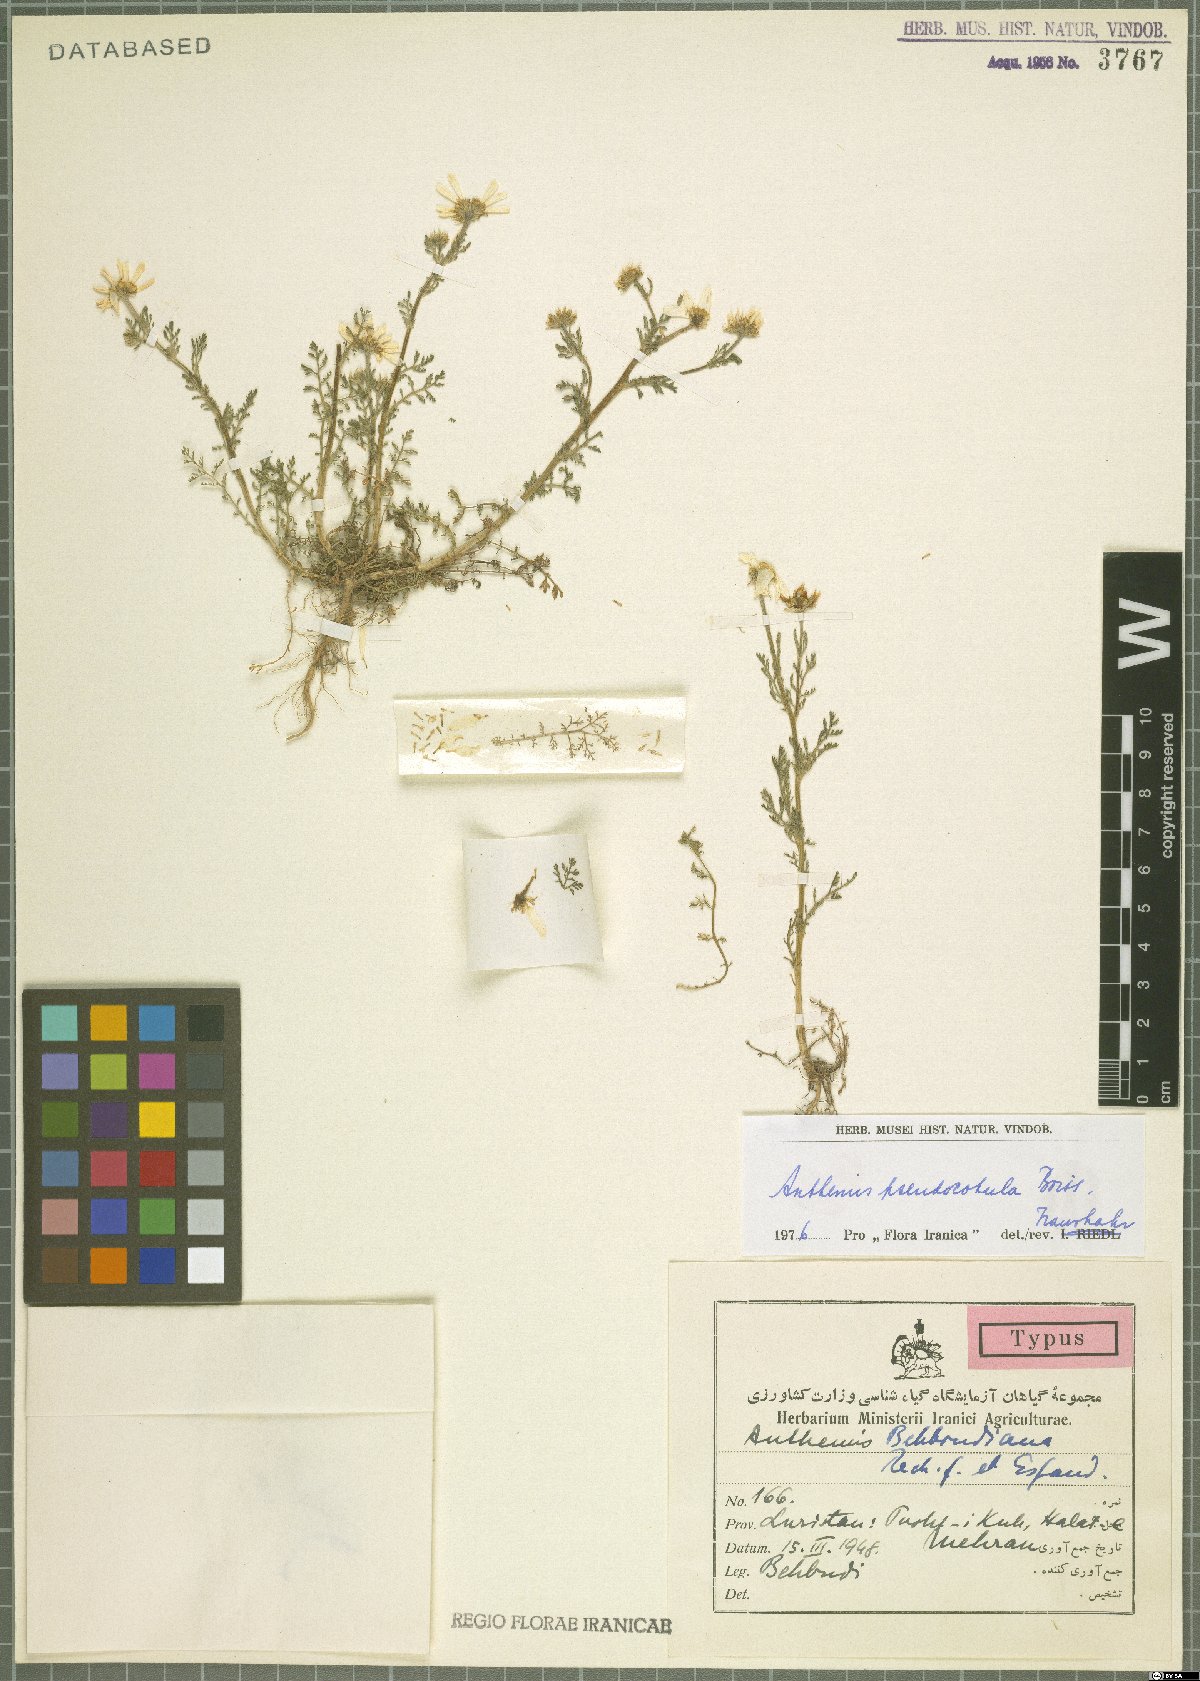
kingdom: Plantae
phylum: Tracheophyta
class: Magnoliopsida
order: Asterales
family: Asteraceae
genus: Anthemis
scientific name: Anthemis pseudocotula
